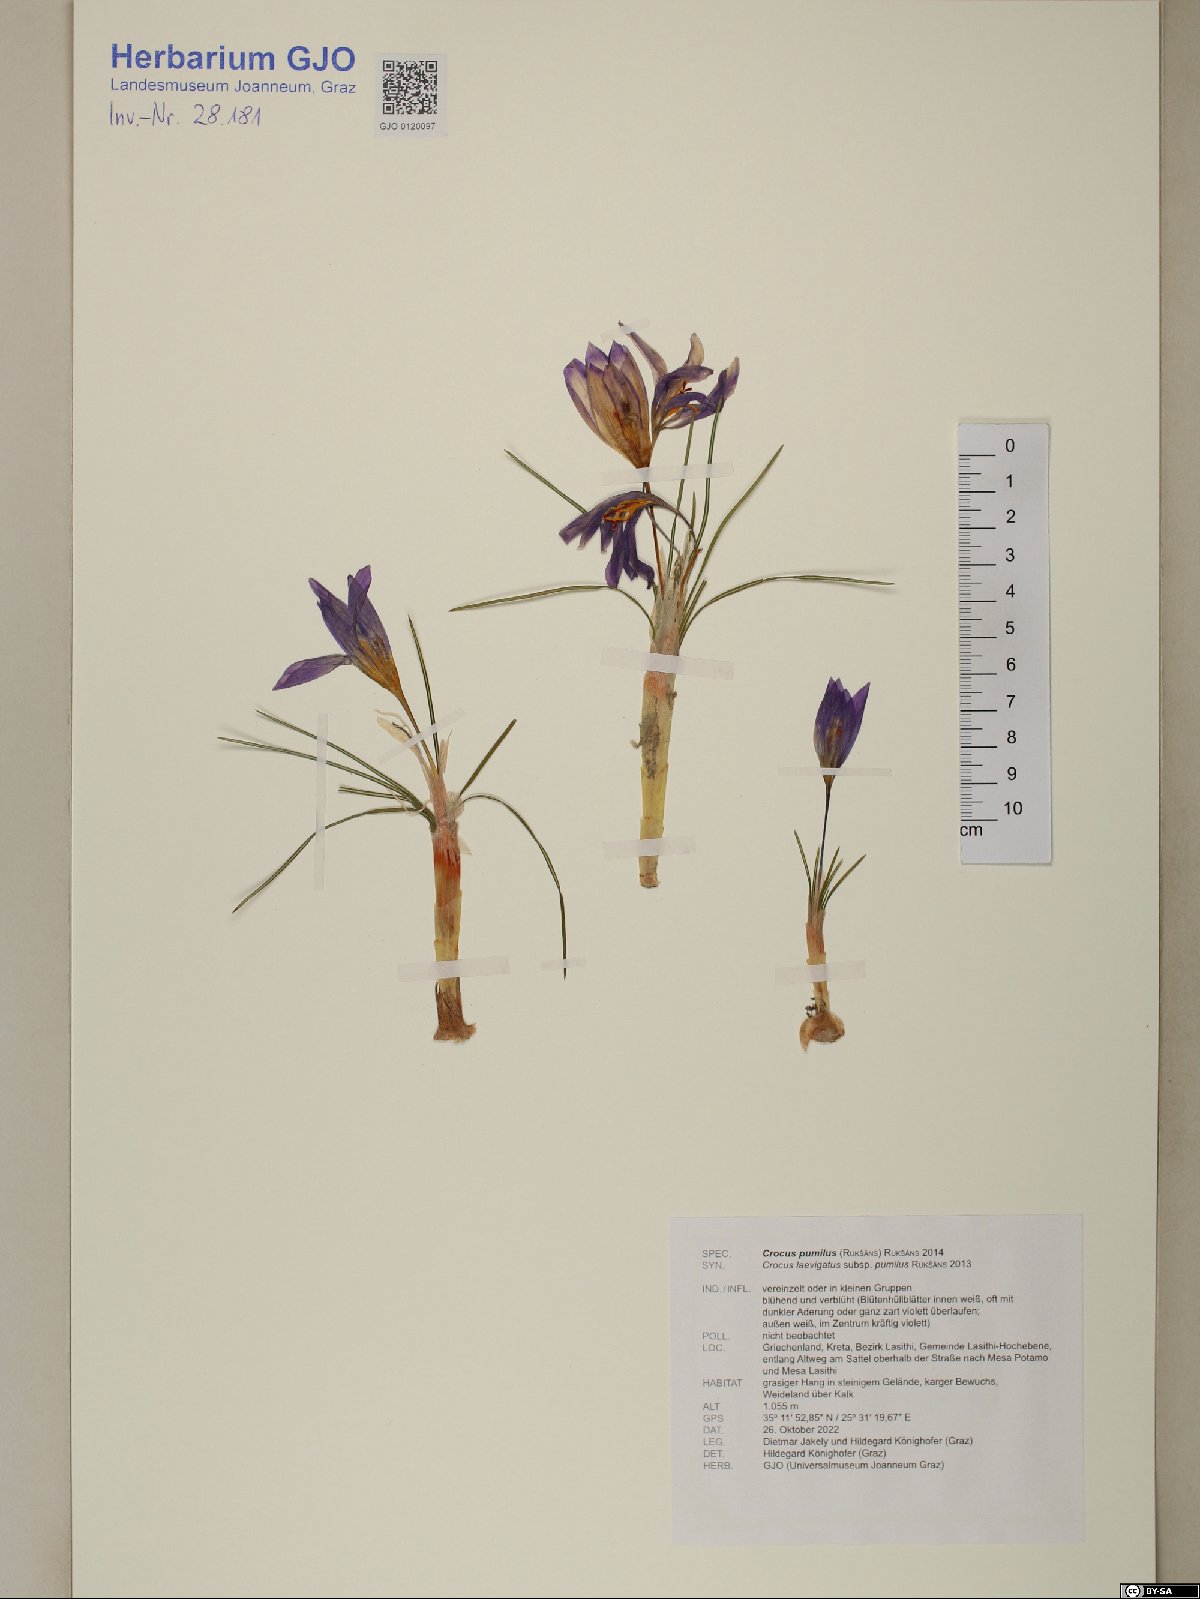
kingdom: Plantae
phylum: Tracheophyta
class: Liliopsida
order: Asparagales
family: Iridaceae
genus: Crocus
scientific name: Crocus pumilus
